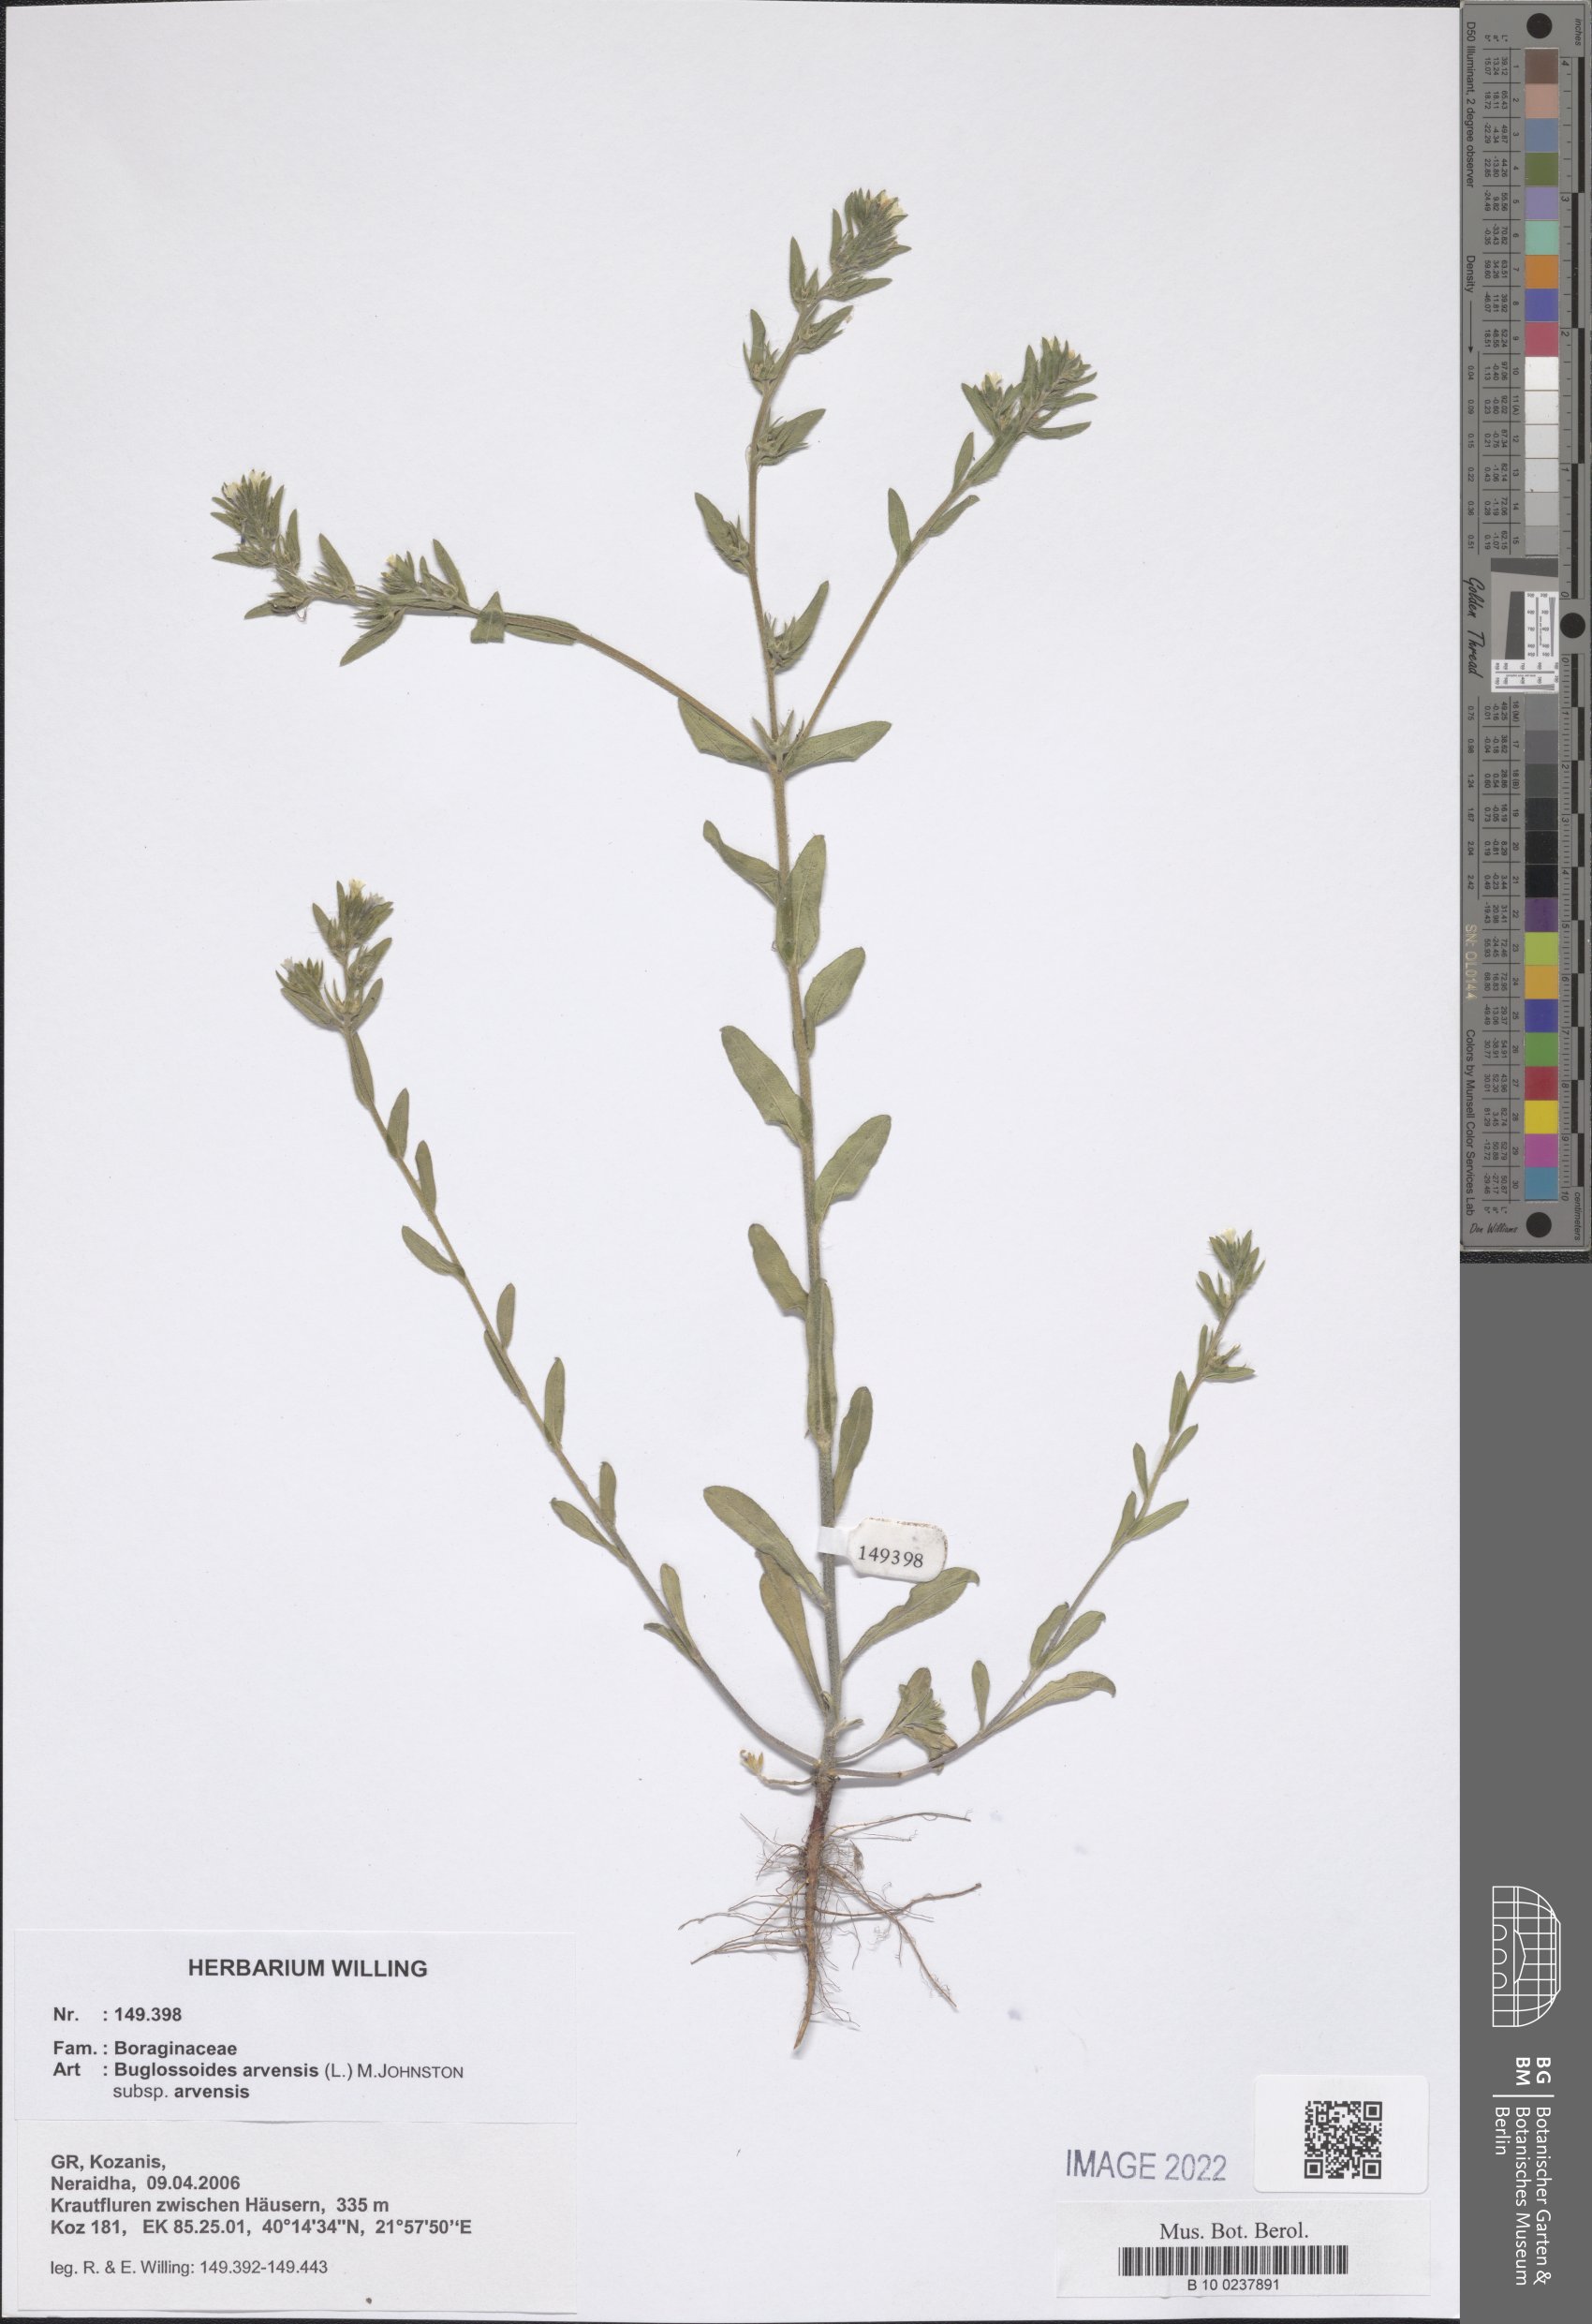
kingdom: Plantae
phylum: Tracheophyta
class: Magnoliopsida
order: Boraginales
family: Boraginaceae
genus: Buglossoides
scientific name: Buglossoides arvensis
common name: Corn gromwell
